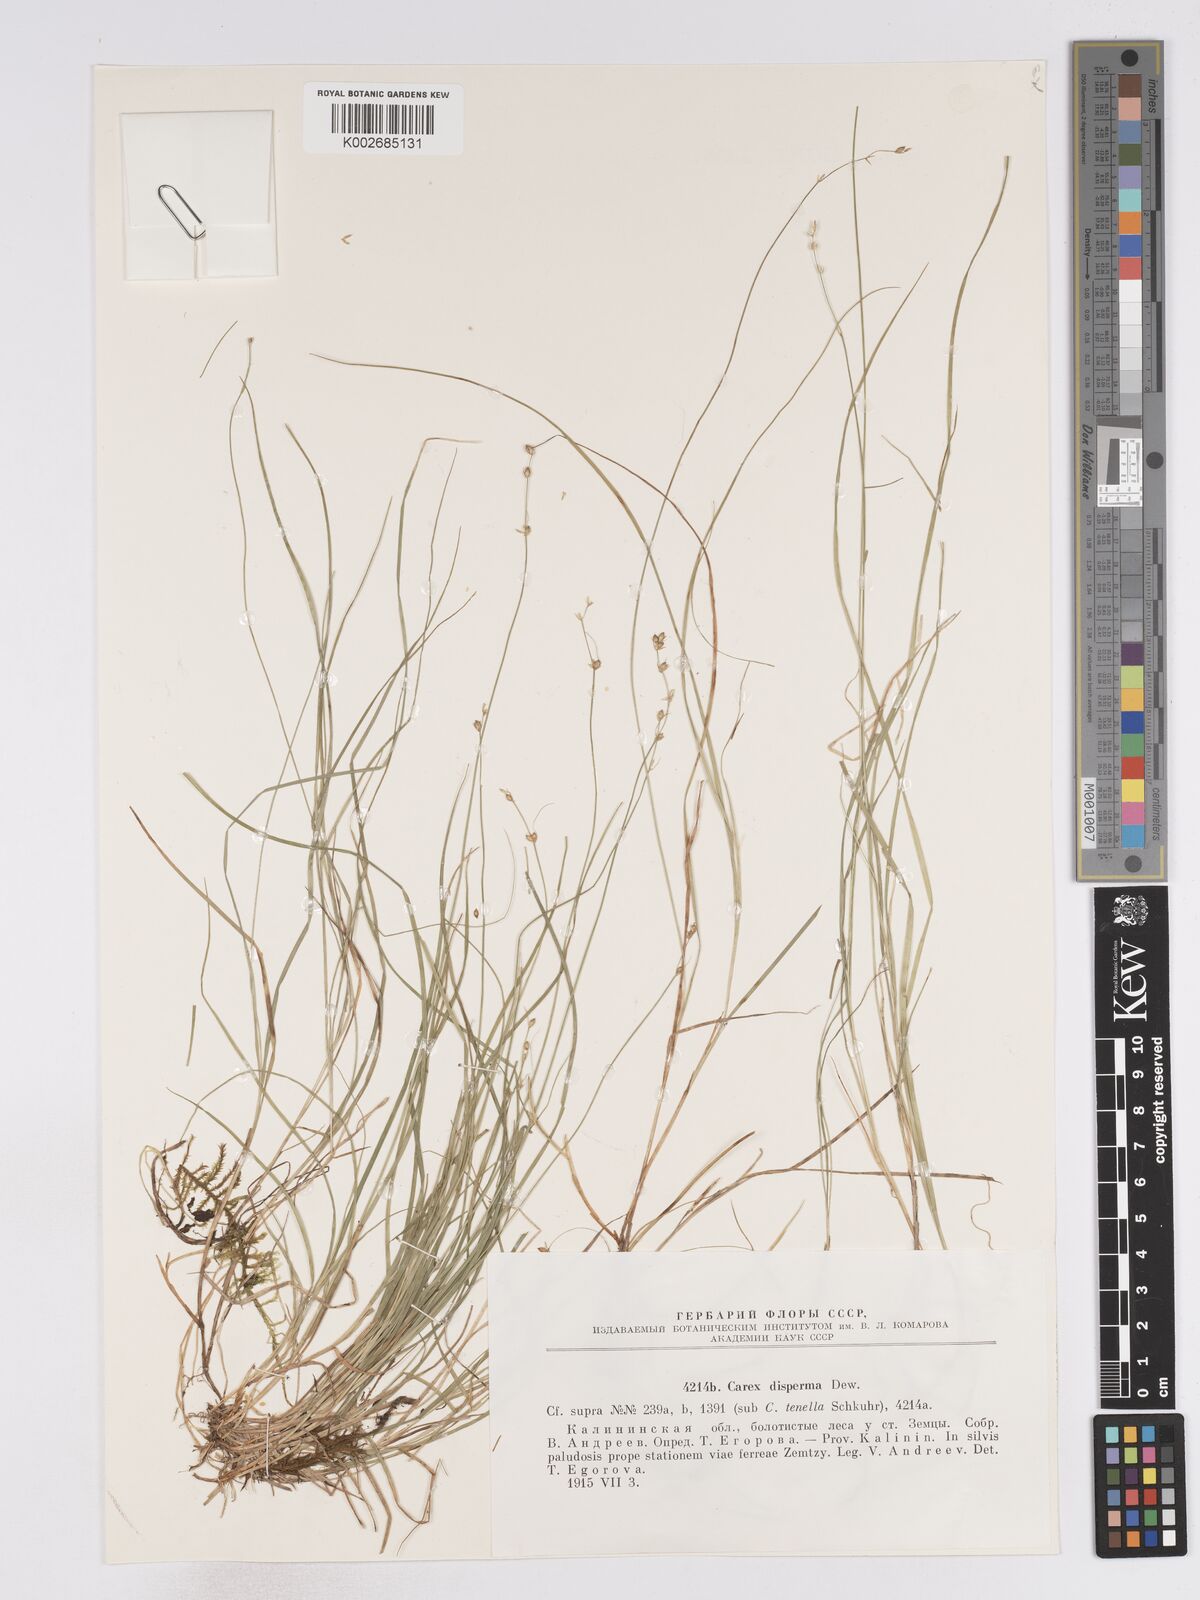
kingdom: Plantae
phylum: Tracheophyta
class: Liliopsida
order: Poales
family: Cyperaceae
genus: Carex
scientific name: Carex disperma
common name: Short-leaved sedge
